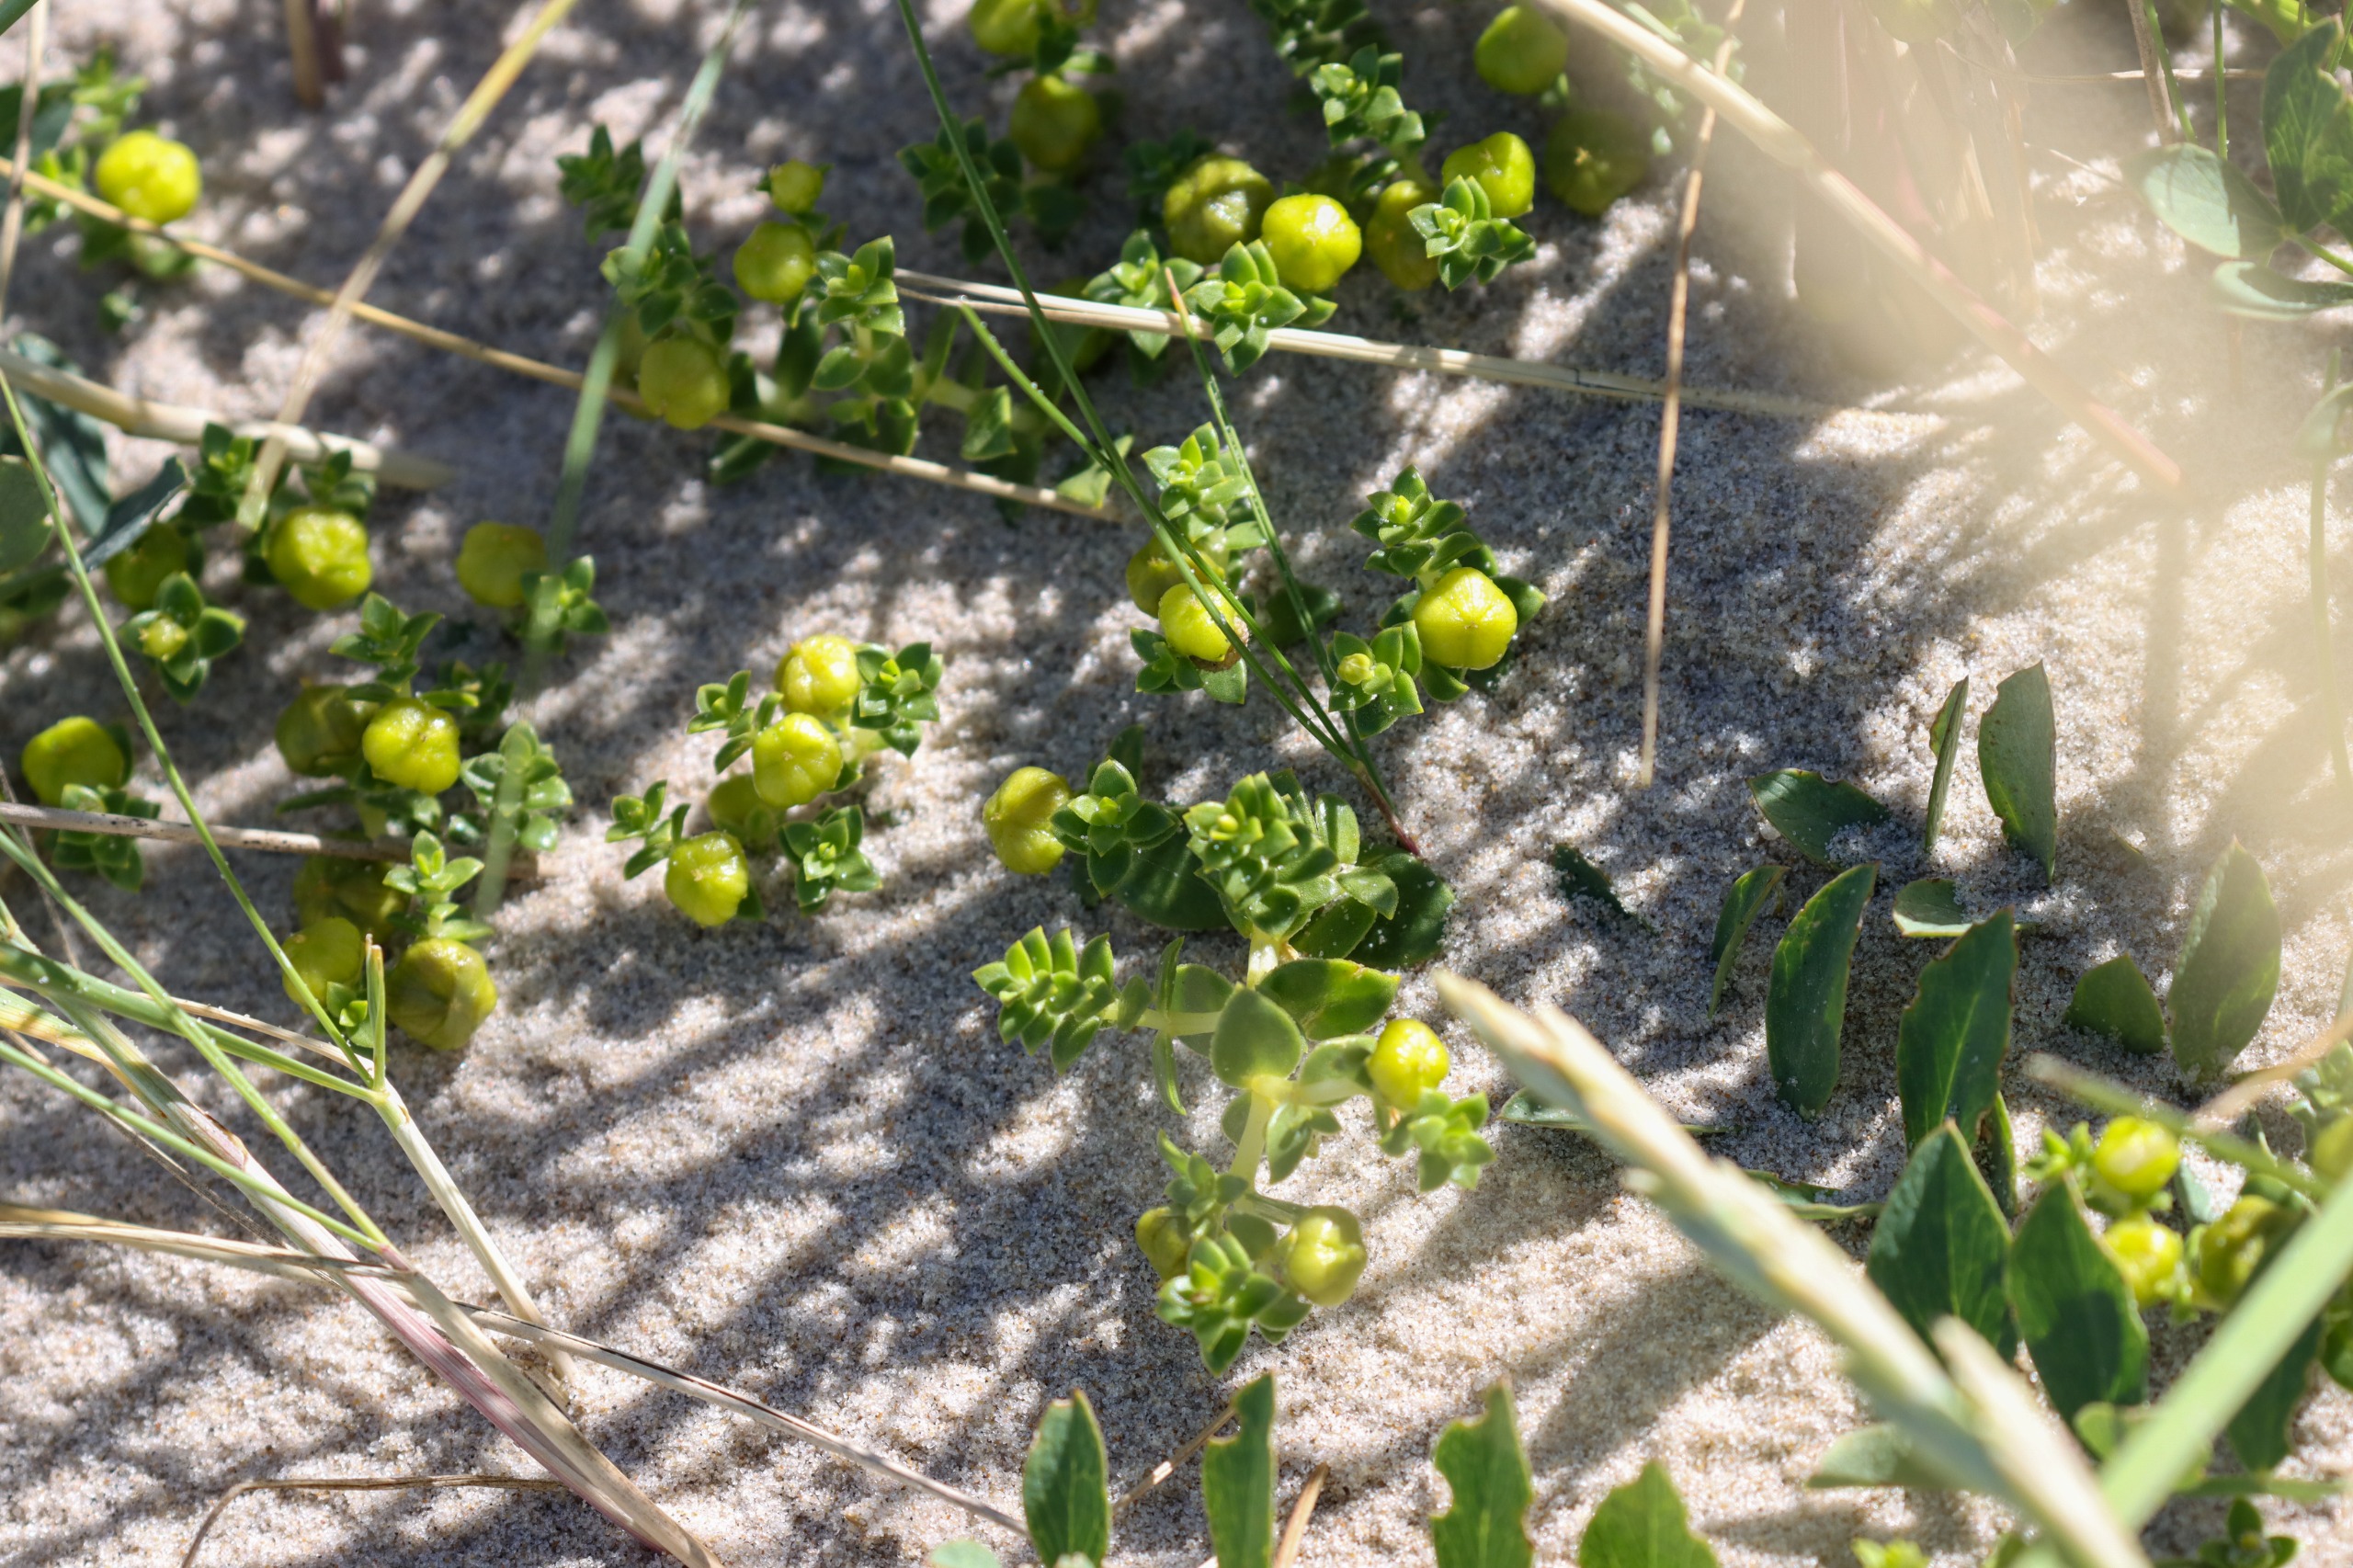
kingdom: Plantae
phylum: Tracheophyta
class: Magnoliopsida
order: Caryophyllales
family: Caryophyllaceae
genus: Honckenya
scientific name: Honckenya peploides
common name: Strandarve
